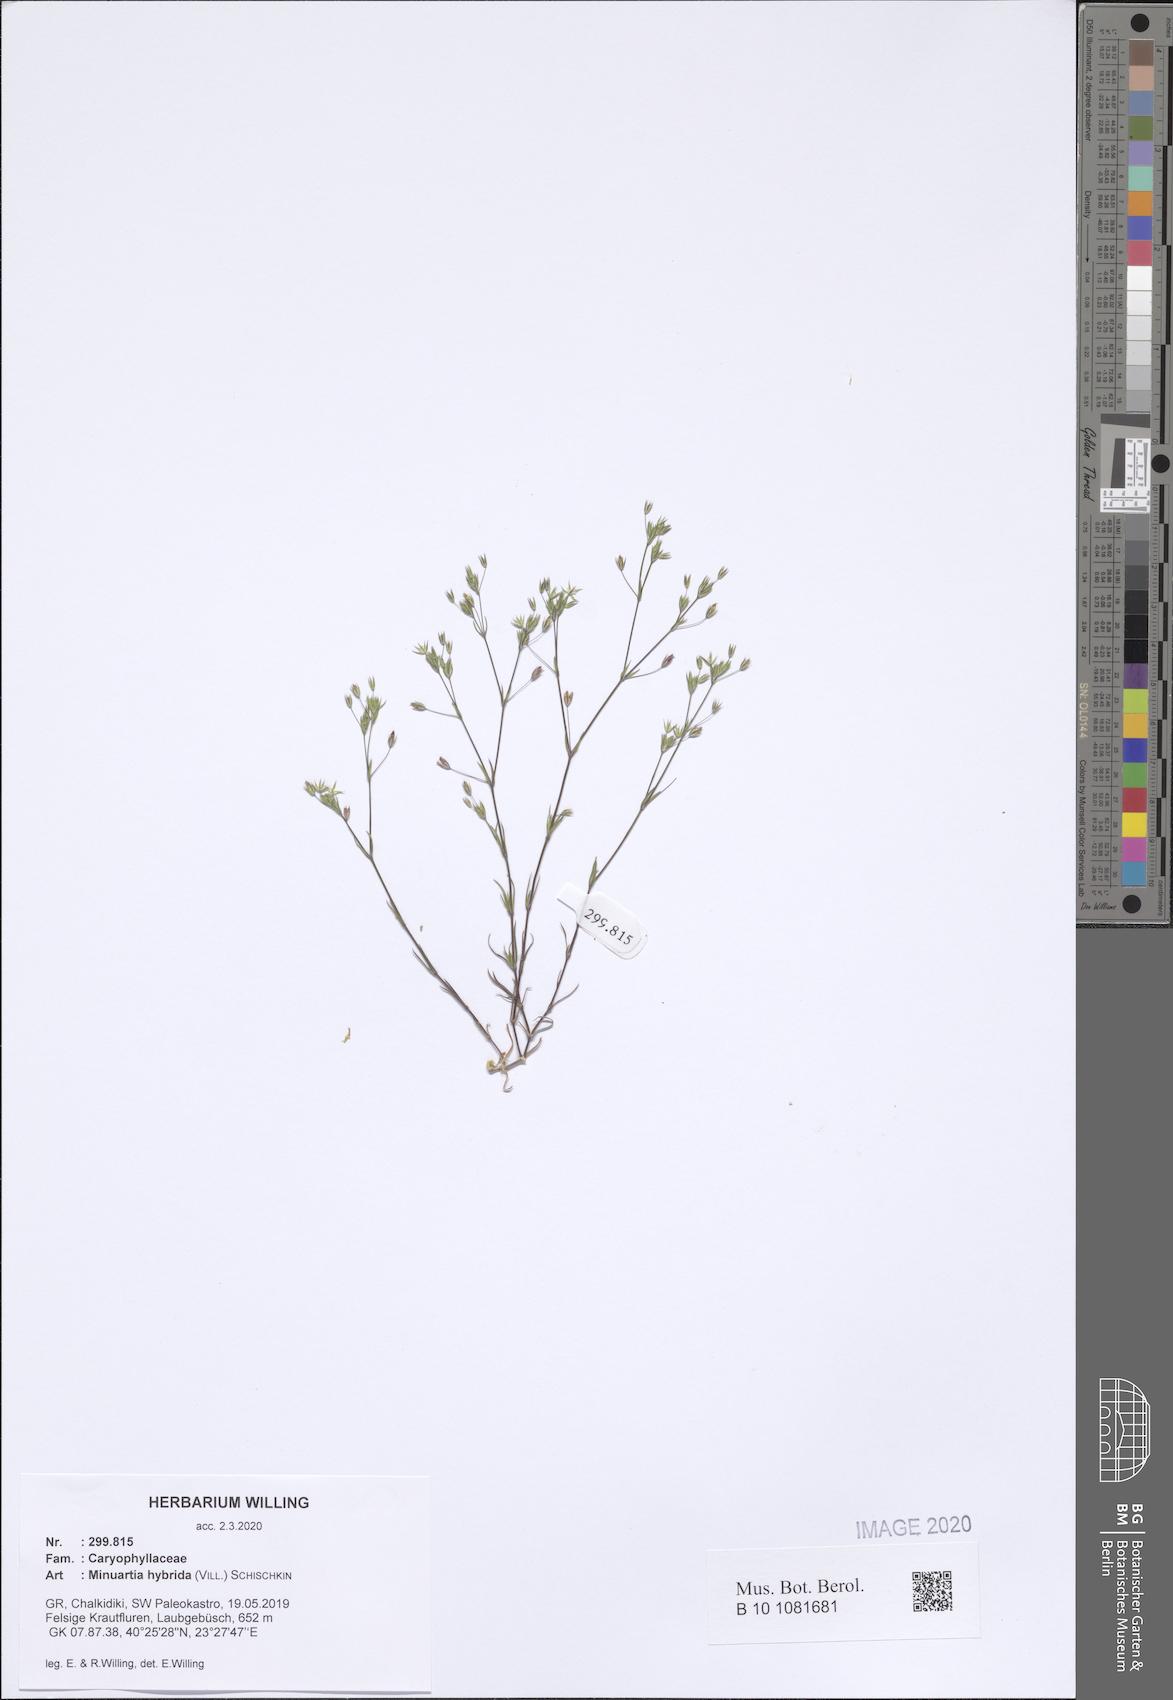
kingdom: Plantae
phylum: Tracheophyta
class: Magnoliopsida
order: Caryophyllales
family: Caryophyllaceae
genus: Sabulina
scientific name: Sabulina tenuifolia
